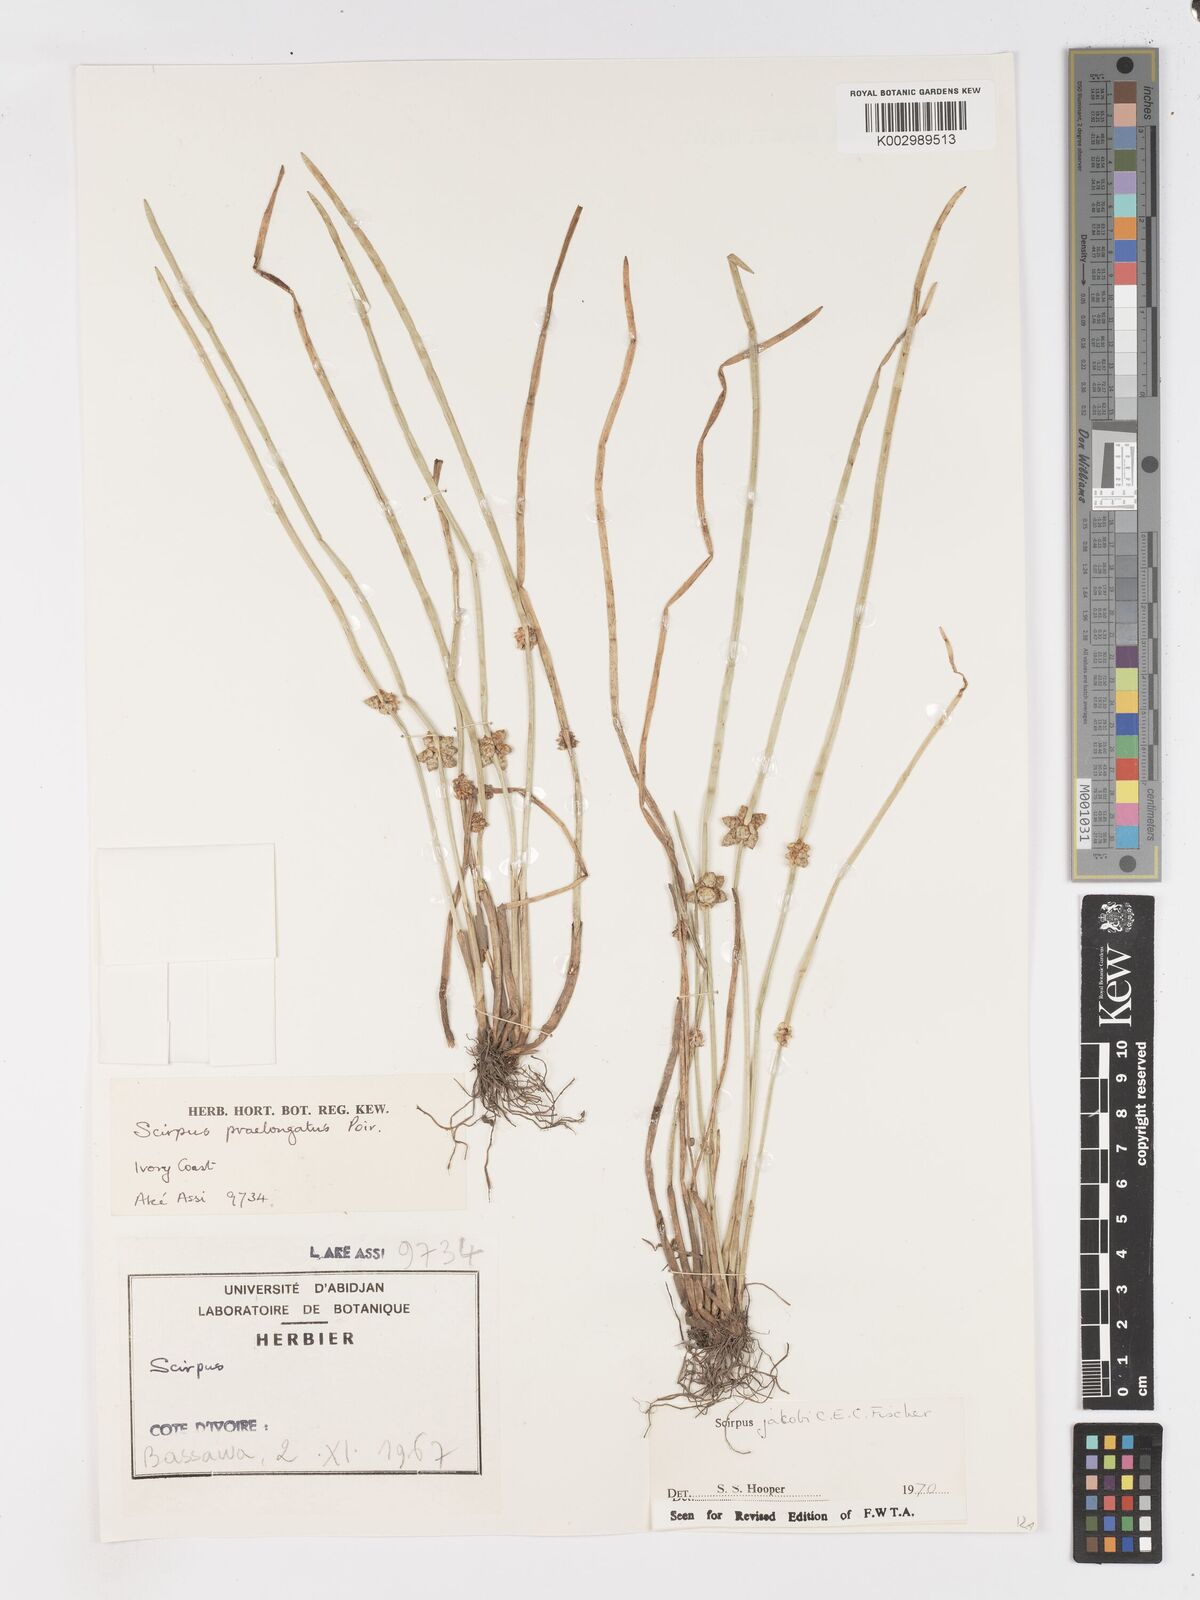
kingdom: Plantae
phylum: Tracheophyta
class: Liliopsida
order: Poales
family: Cyperaceae
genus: Schoenoplectiella
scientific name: Schoenoplectiella senegalensis
